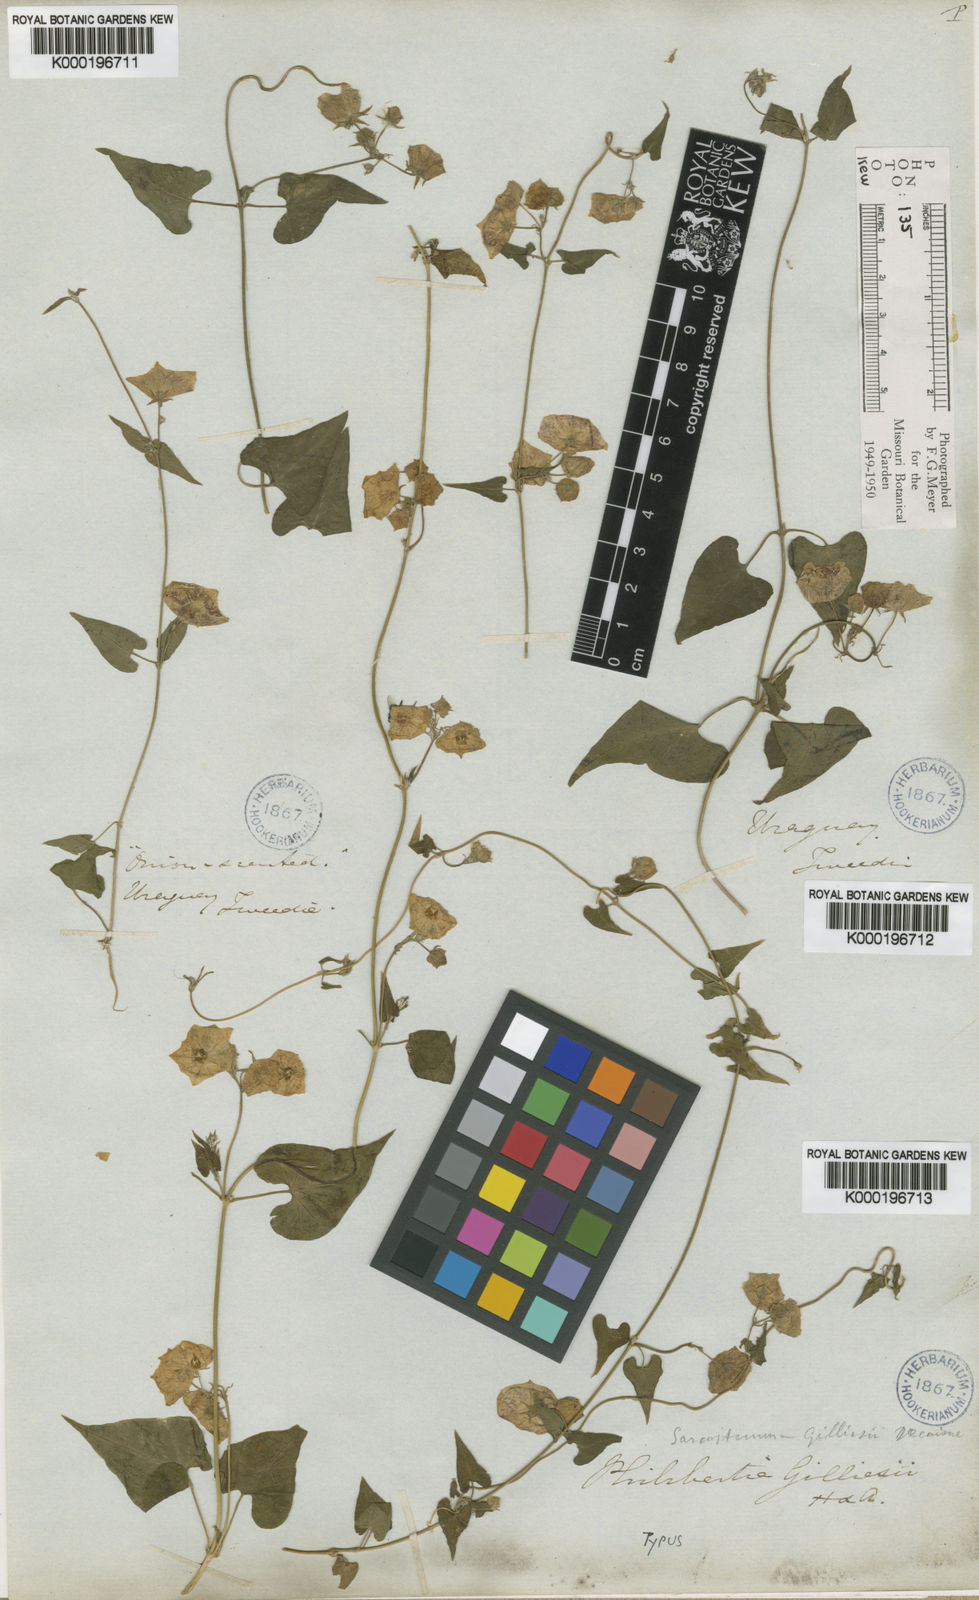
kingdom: Plantae
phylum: Tracheophyta
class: Magnoliopsida
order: Gentianales
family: Apocynaceae
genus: Philibertia
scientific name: Philibertia gilliesii
